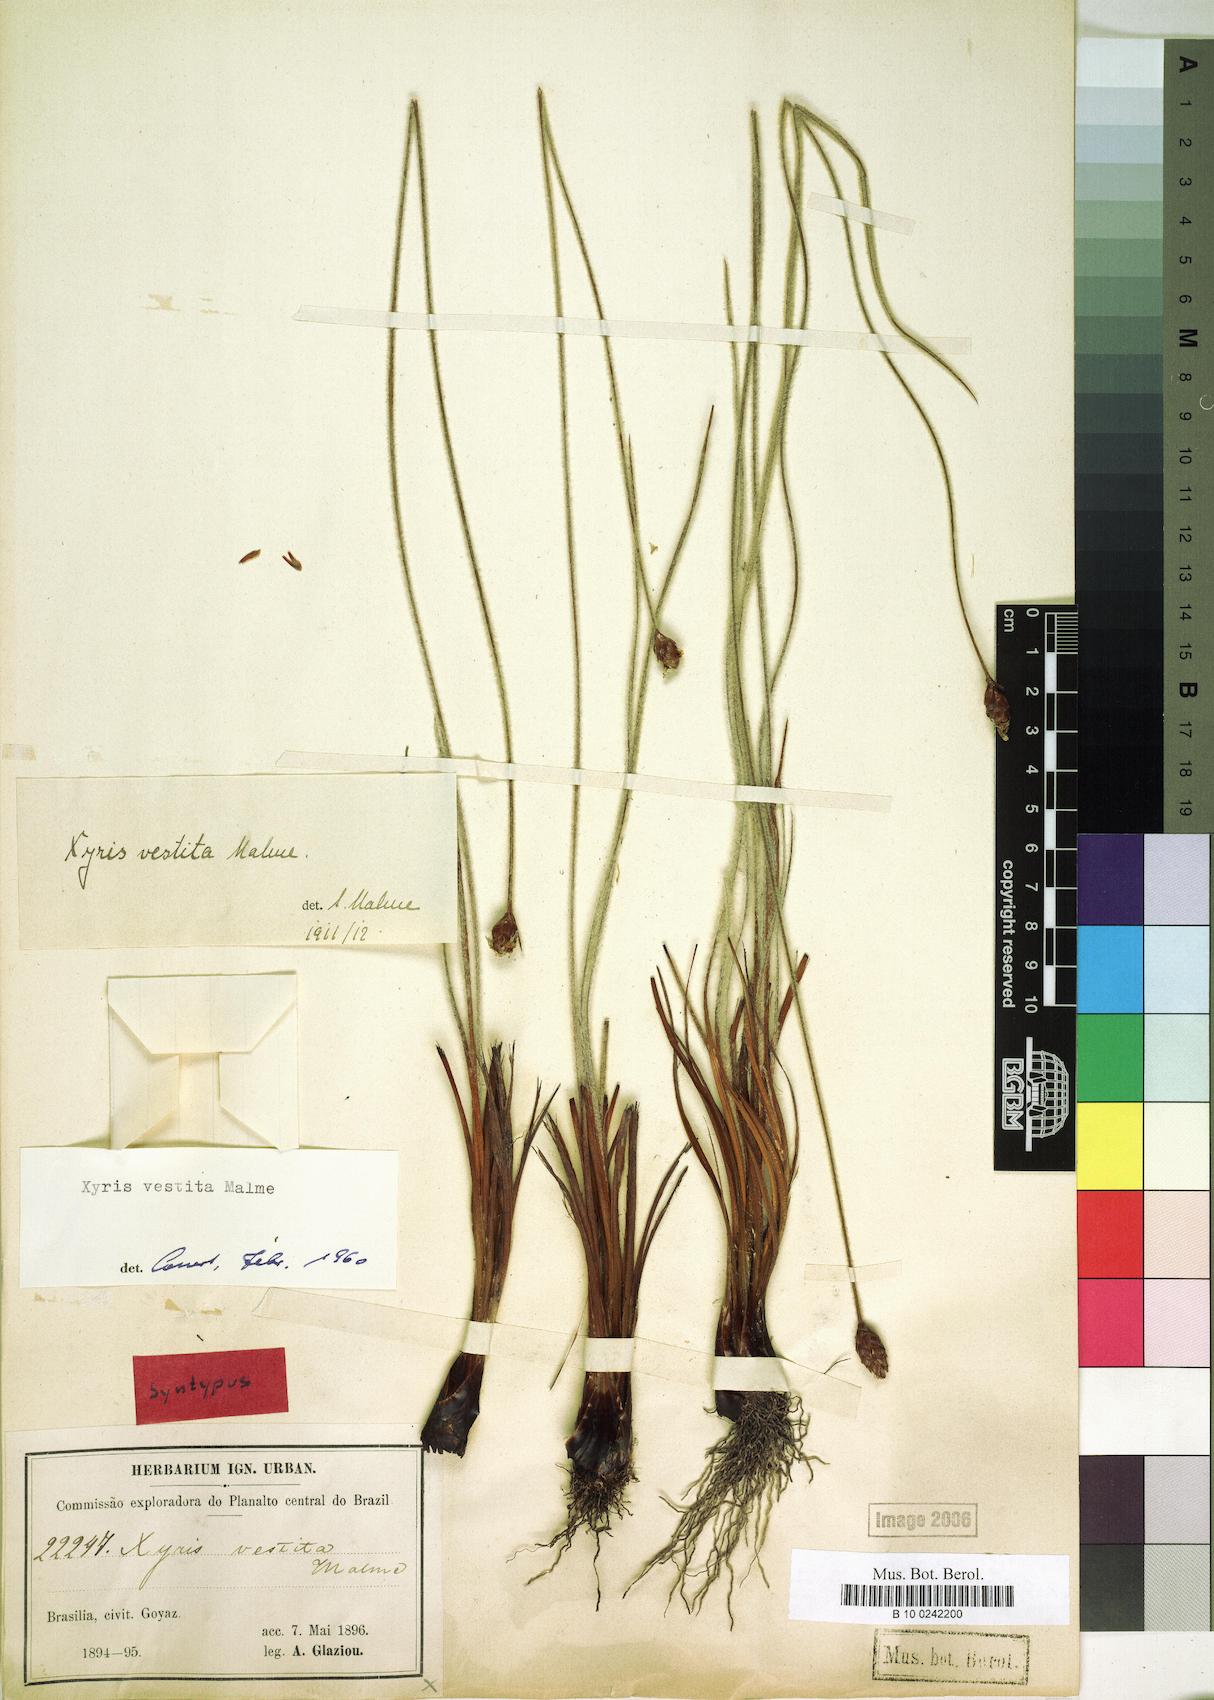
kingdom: Plantae
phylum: Tracheophyta
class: Liliopsida
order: Poales
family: Xyridaceae
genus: Xyris
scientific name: Xyris vestita
